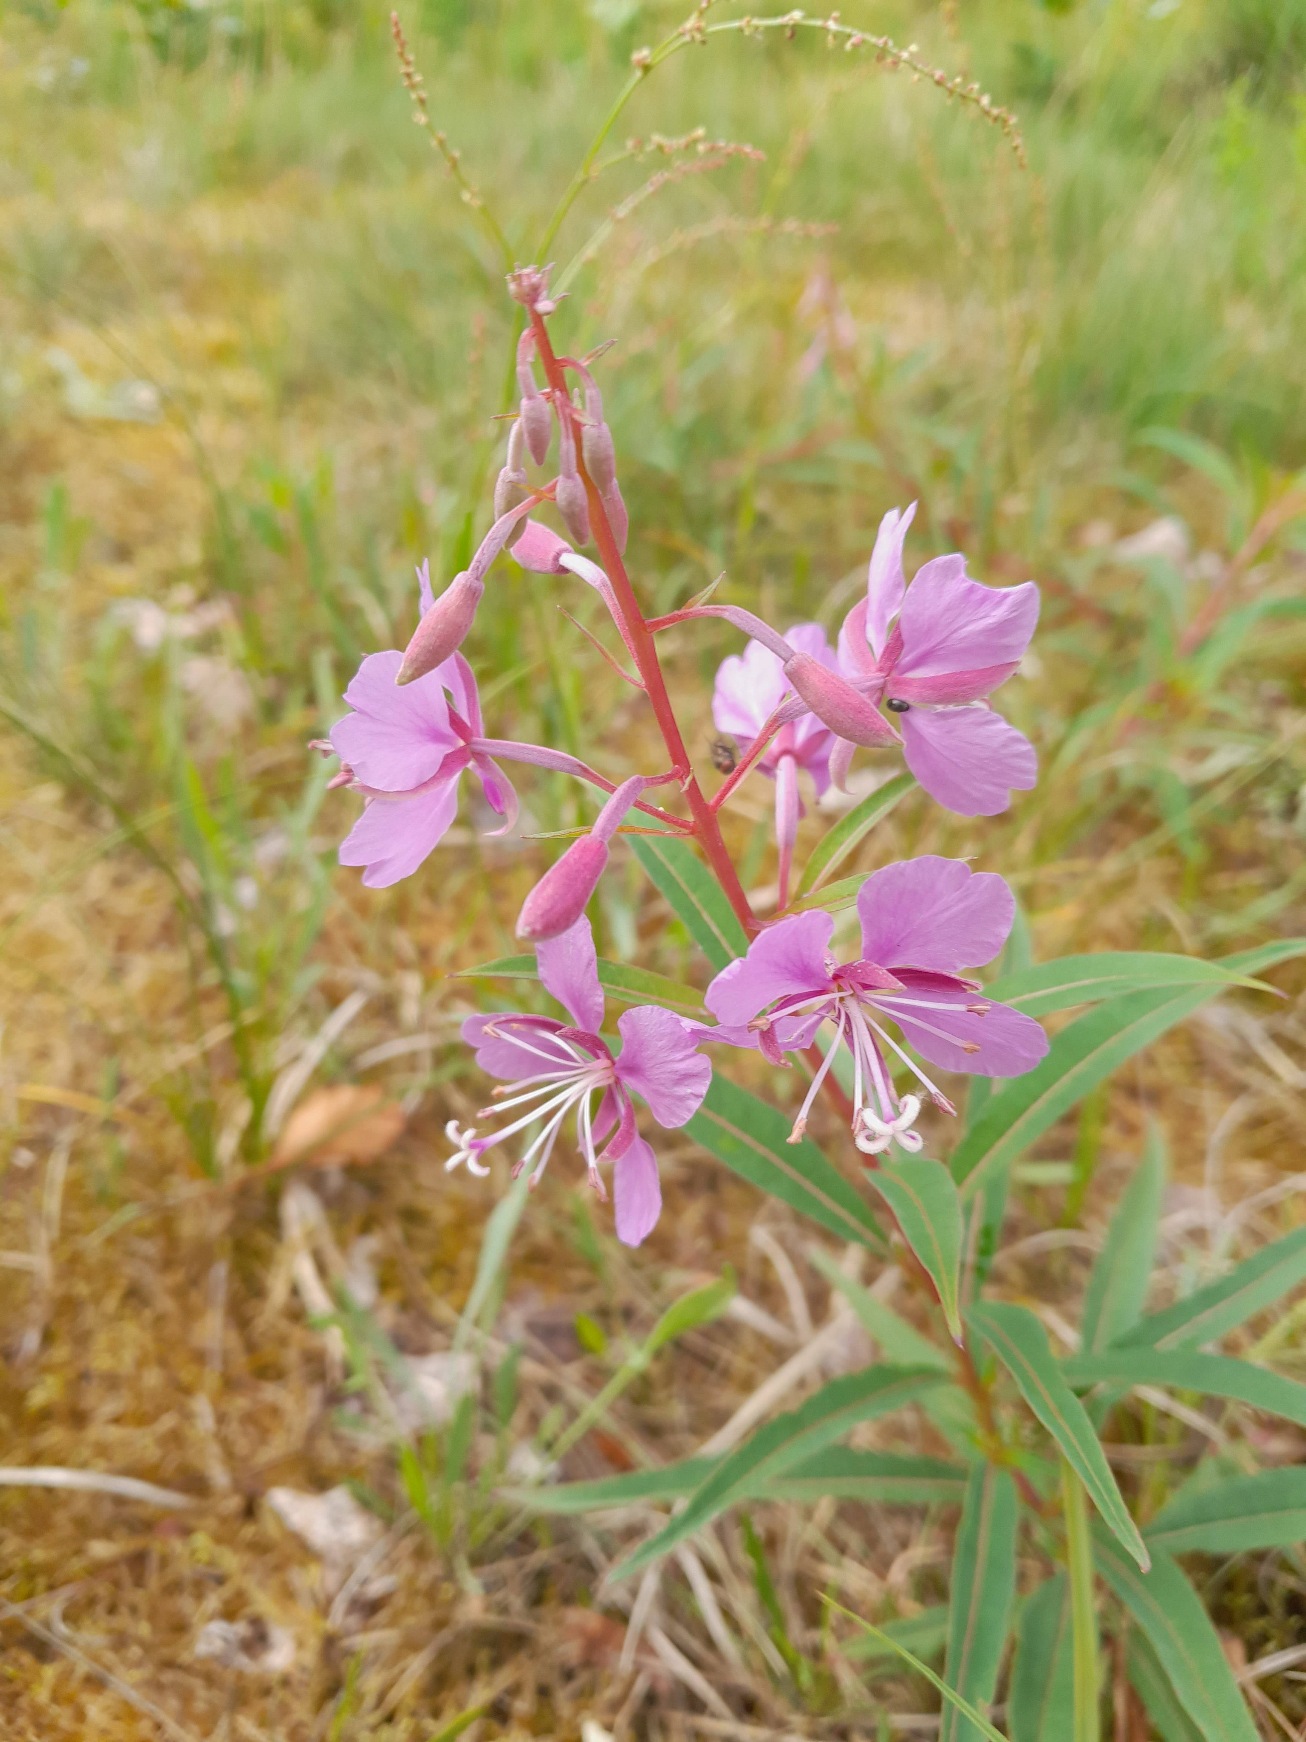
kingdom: Plantae
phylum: Tracheophyta
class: Magnoliopsida
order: Myrtales
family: Onagraceae
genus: Chamaenerion
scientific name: Chamaenerion angustifolium
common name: Gederams
